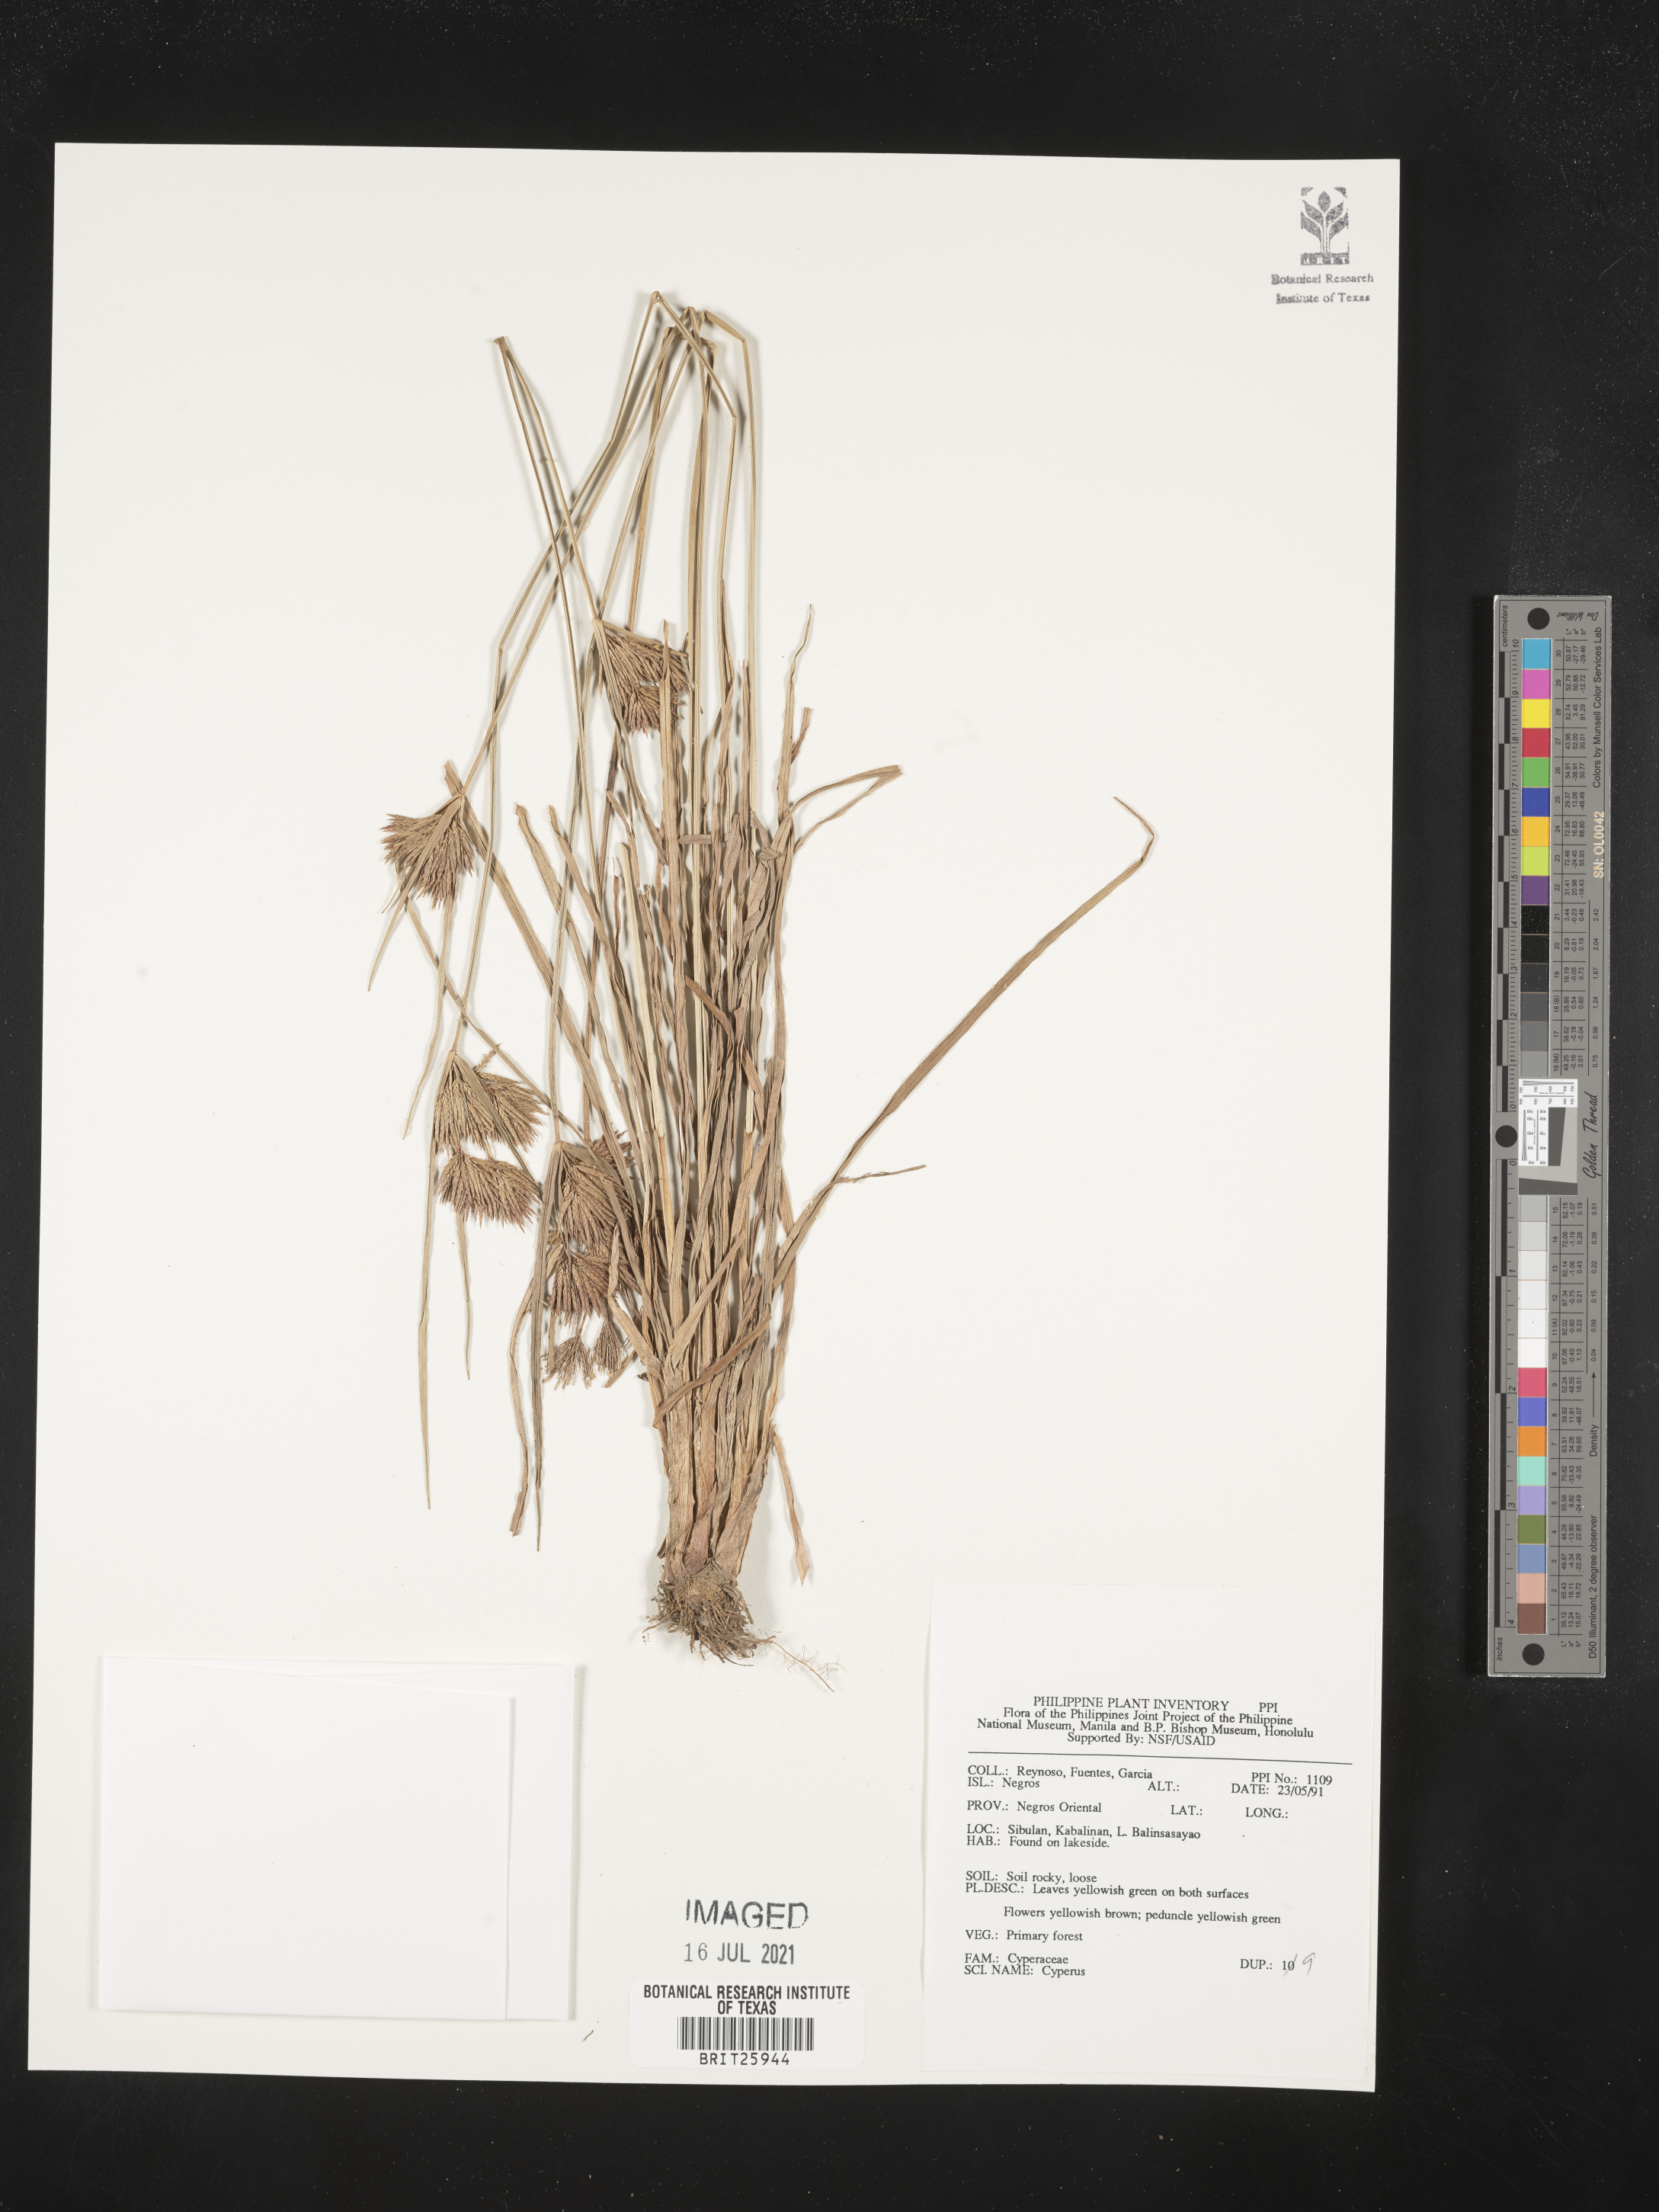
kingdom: Plantae
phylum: Tracheophyta
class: Liliopsida
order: Poales
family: Cyperaceae
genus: Cyperus
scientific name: Cyperus
